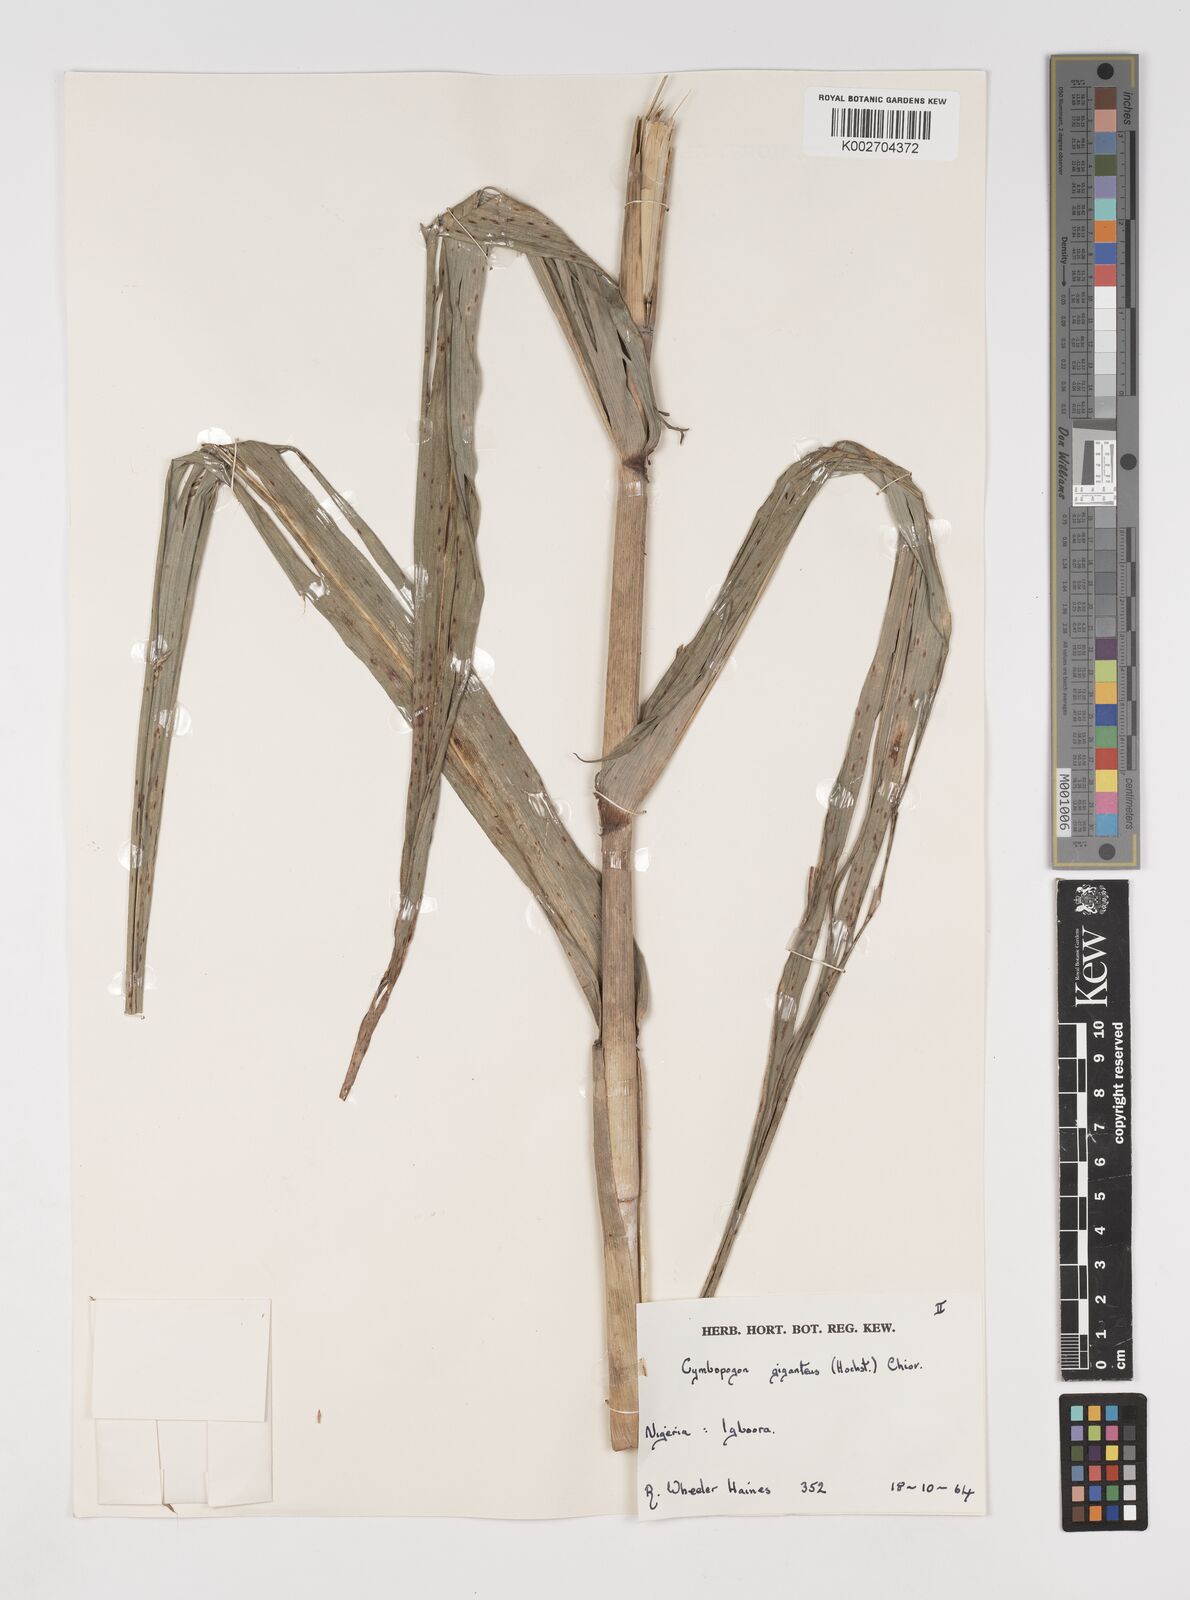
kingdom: Plantae
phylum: Tracheophyta
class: Liliopsida
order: Poales
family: Poaceae
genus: Cymbopogon
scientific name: Cymbopogon giganteus
